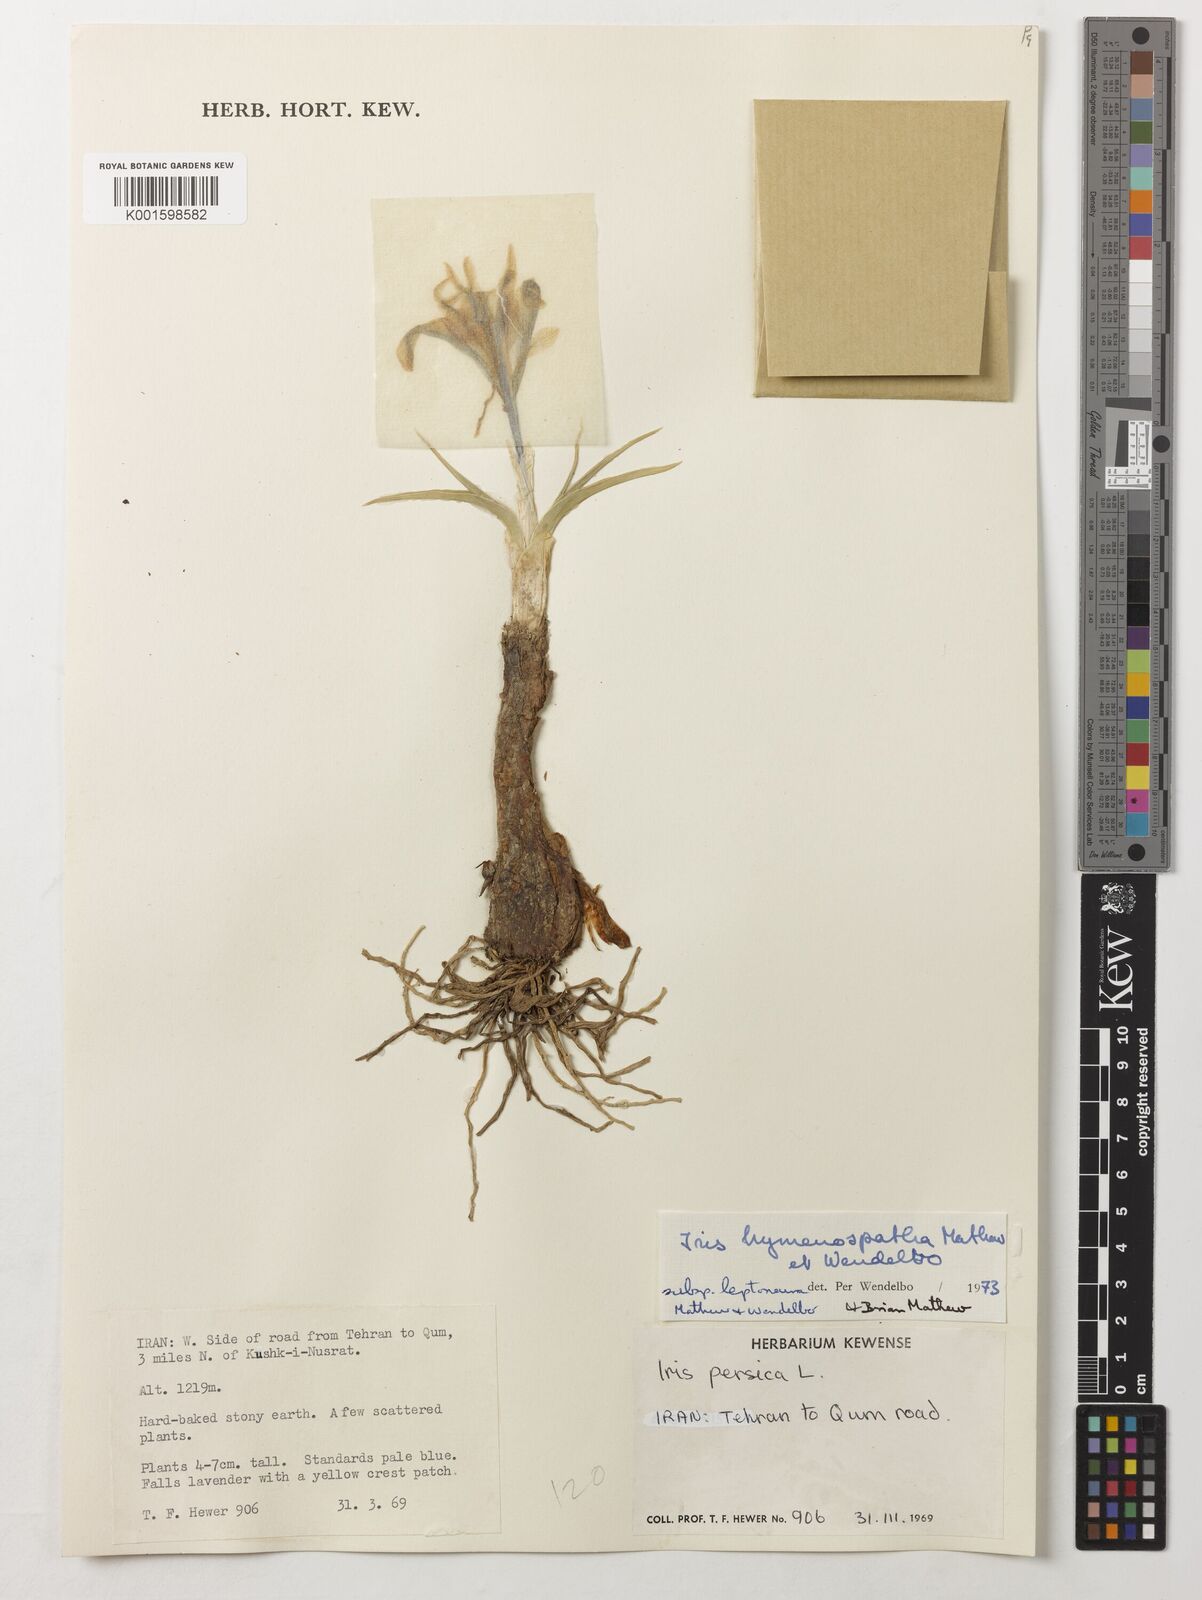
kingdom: Plantae
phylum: Tracheophyta
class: Liliopsida
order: Asparagales
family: Iridaceae
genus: Iris
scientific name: Iris hymenospatha
